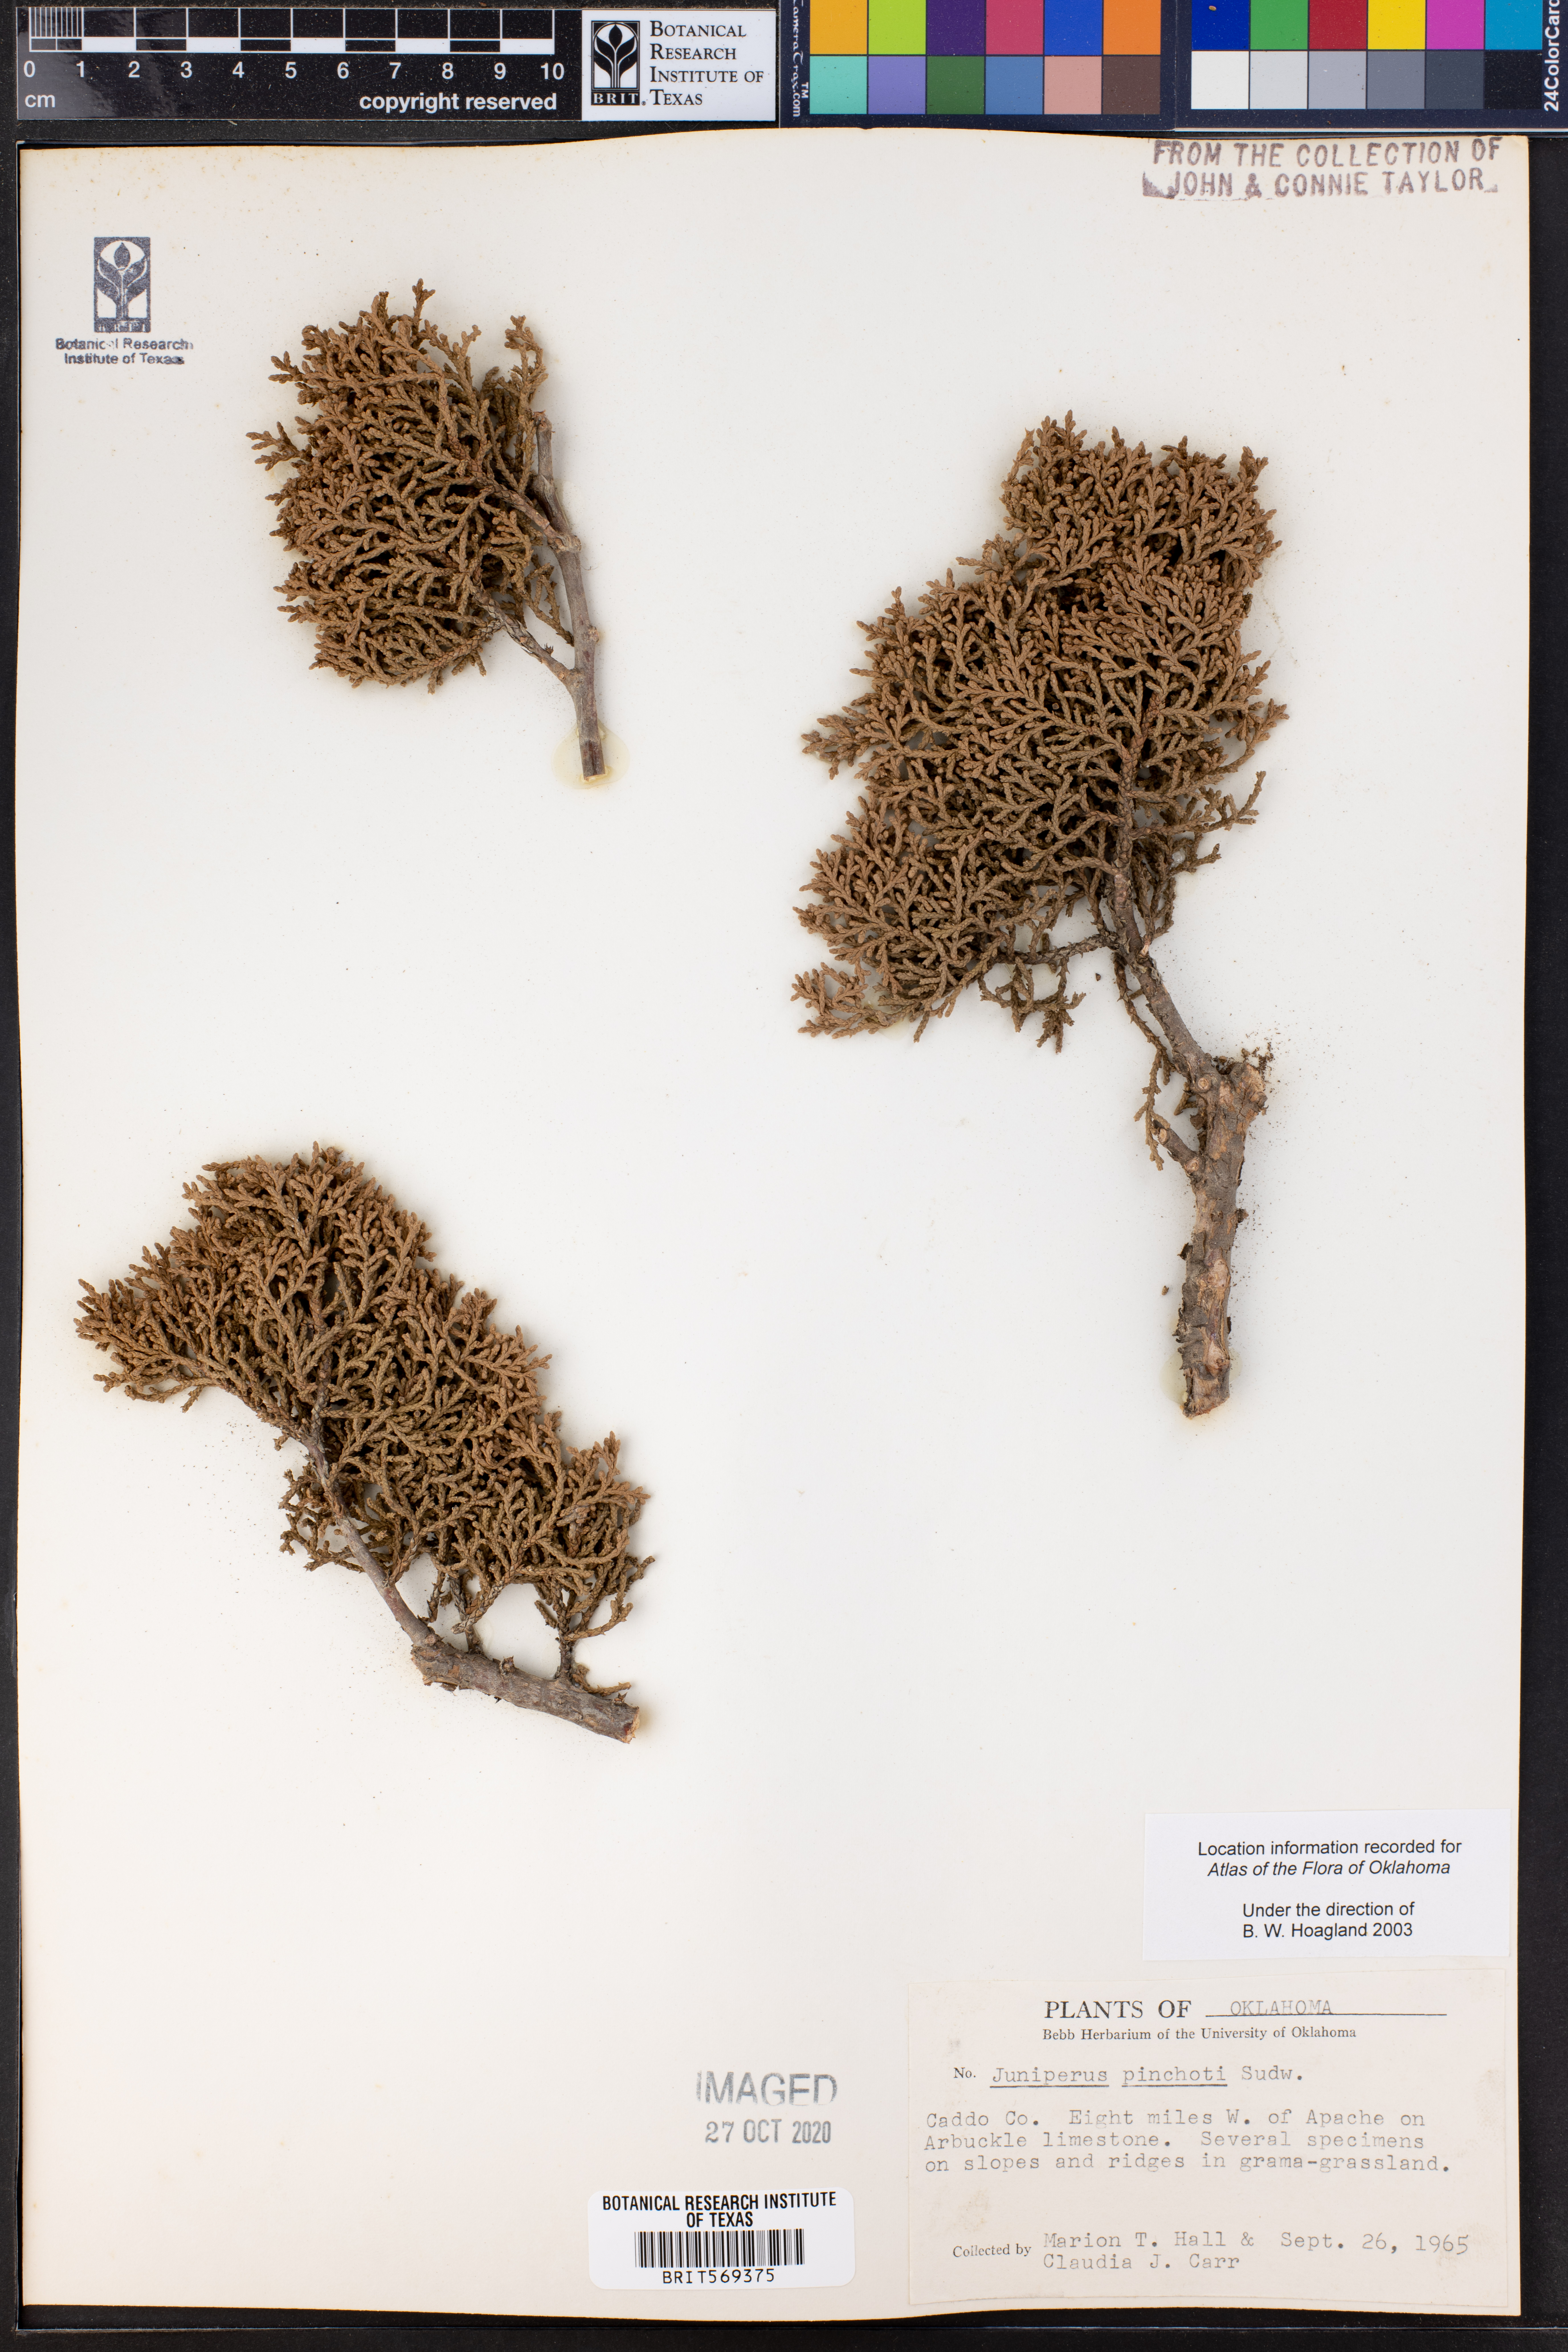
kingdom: Plantae
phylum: Tracheophyta
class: Pinopsida
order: Pinales
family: Cupressaceae
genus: Juniperus
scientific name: Juniperus pinchotii
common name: Pinchot juniper
